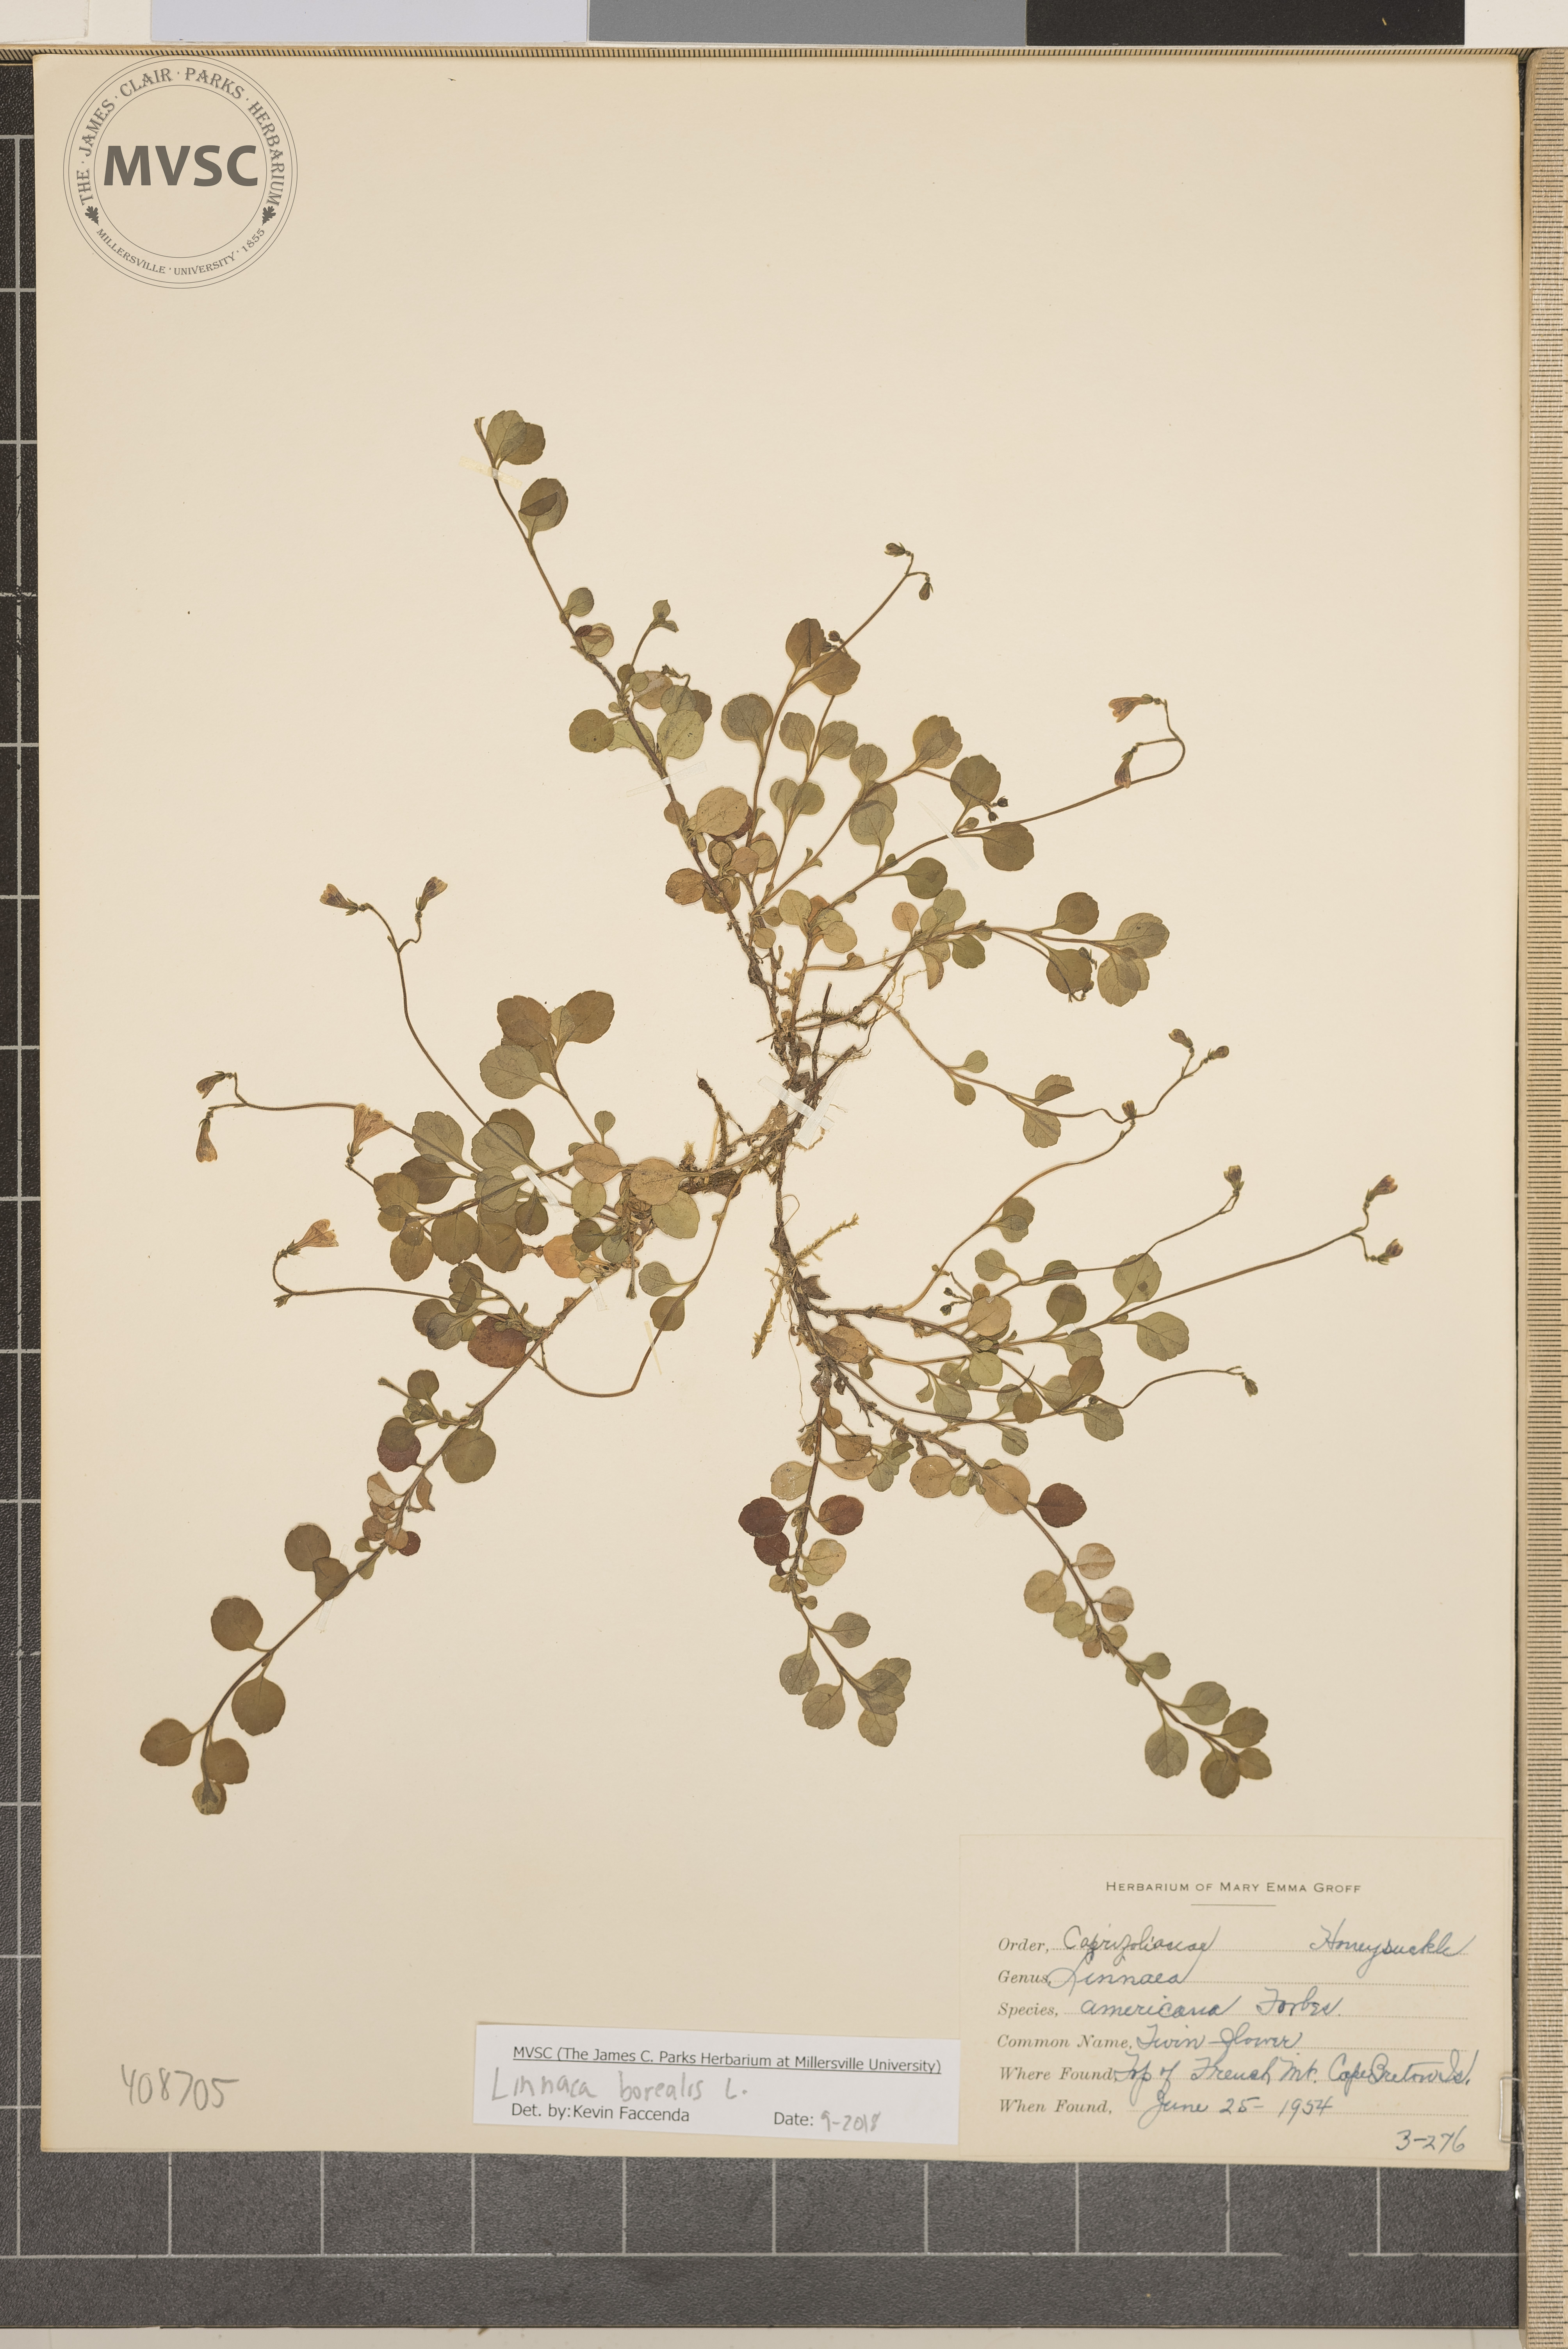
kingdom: Plantae
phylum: Tracheophyta
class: Magnoliopsida
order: Dipsacales
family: Caprifoliaceae
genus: Linnaea
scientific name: Linnaea borealis
